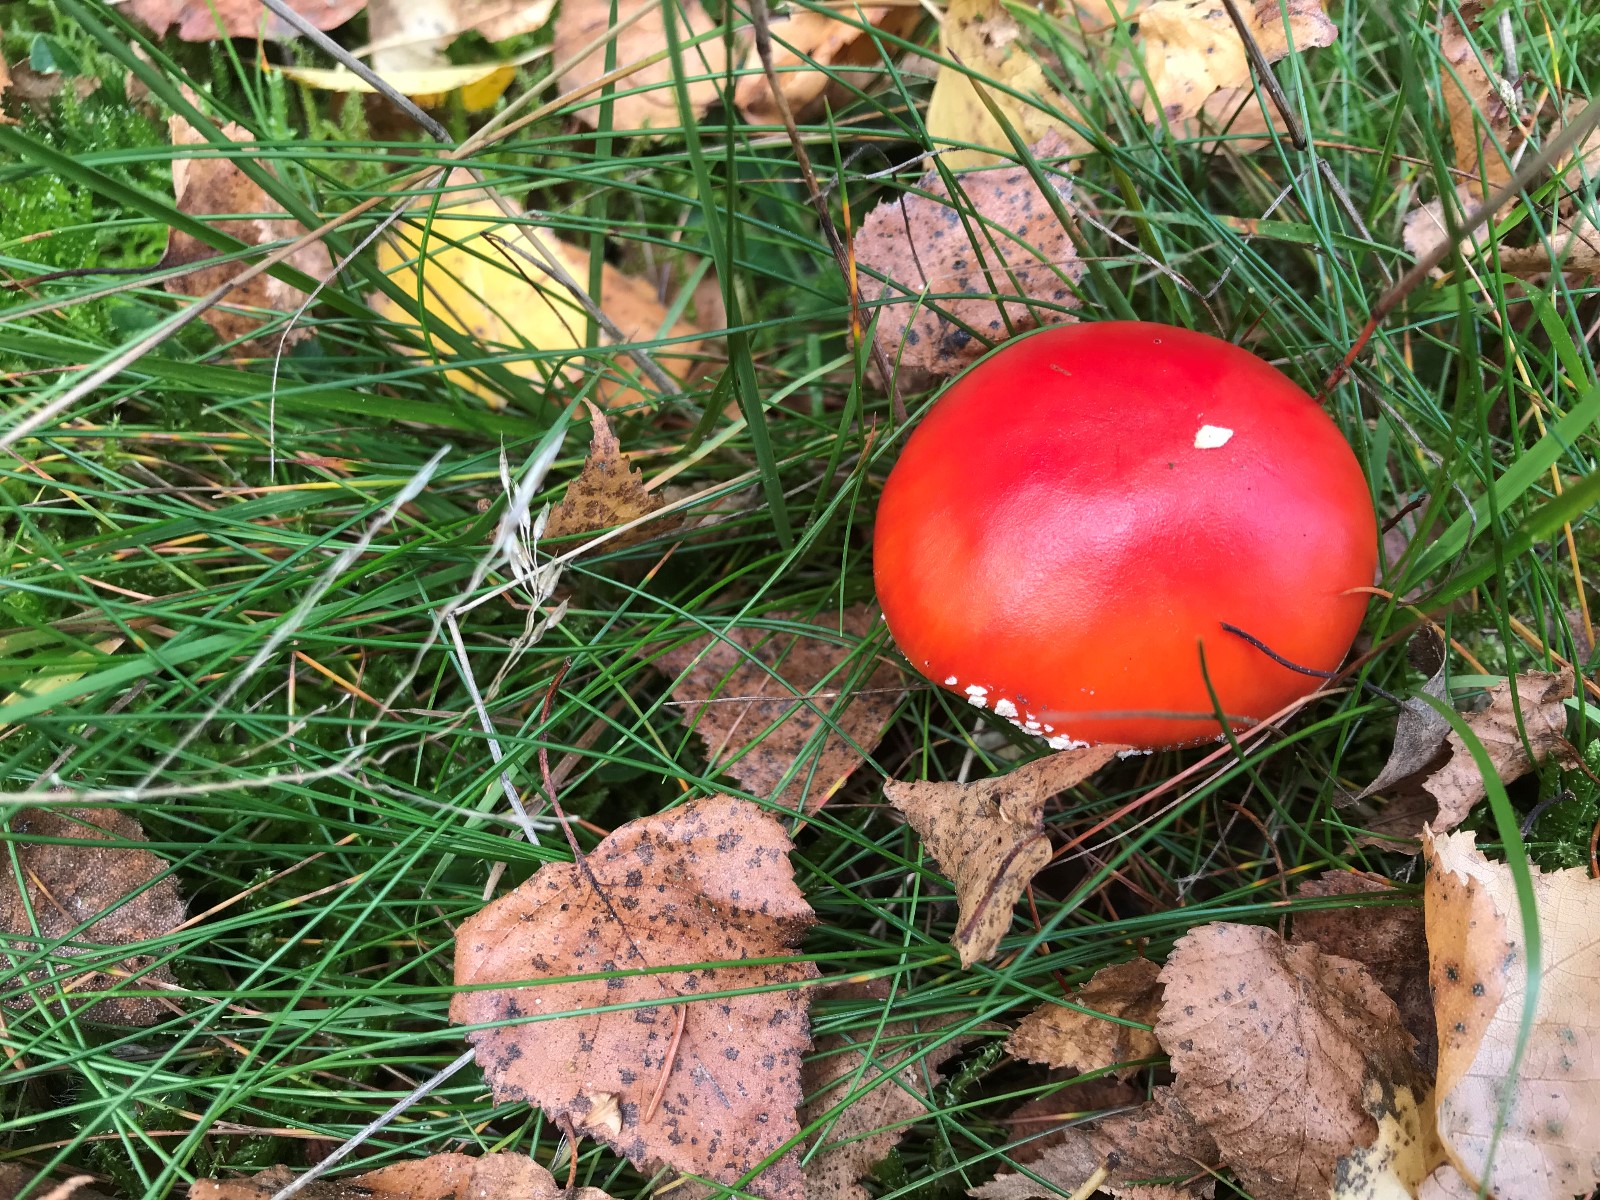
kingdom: Fungi
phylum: Basidiomycota
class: Agaricomycetes
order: Agaricales
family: Amanitaceae
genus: Amanita
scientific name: Amanita muscaria
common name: rød fluesvamp
